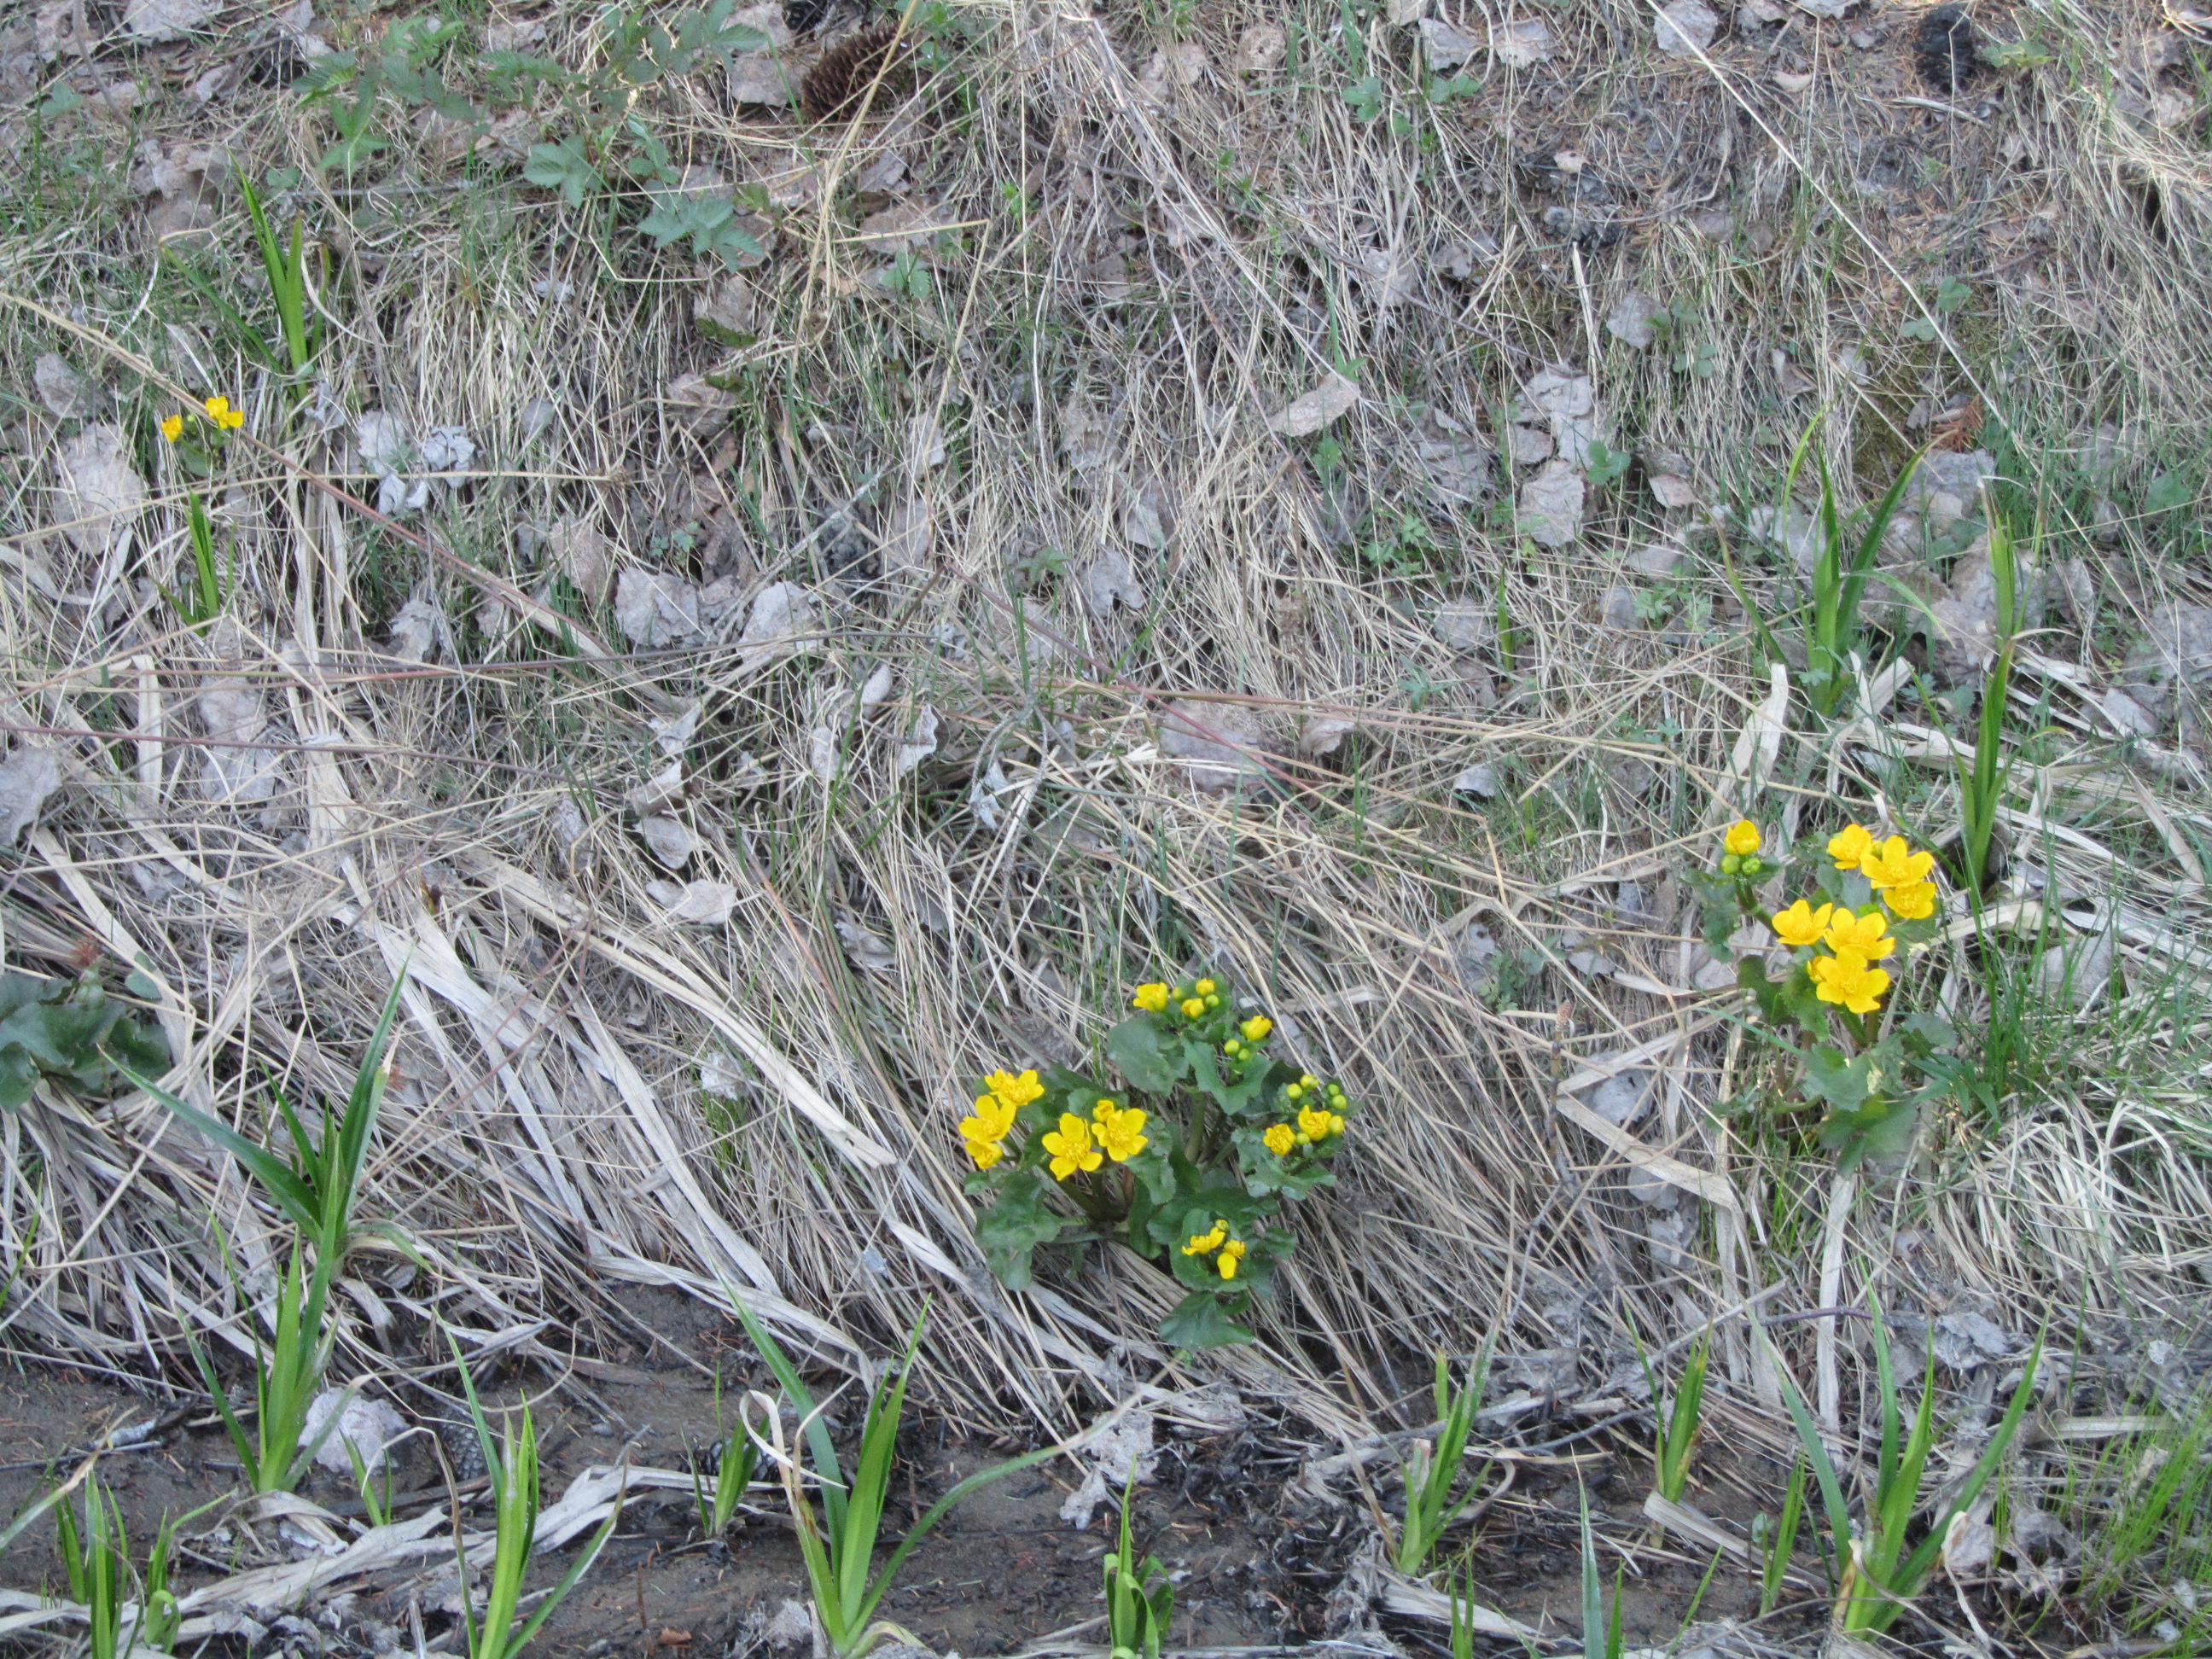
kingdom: Plantae
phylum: Tracheophyta
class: Magnoliopsida
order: Ranunculales
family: Ranunculaceae
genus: Caltha
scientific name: Caltha palustris
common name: Marsh marigold
